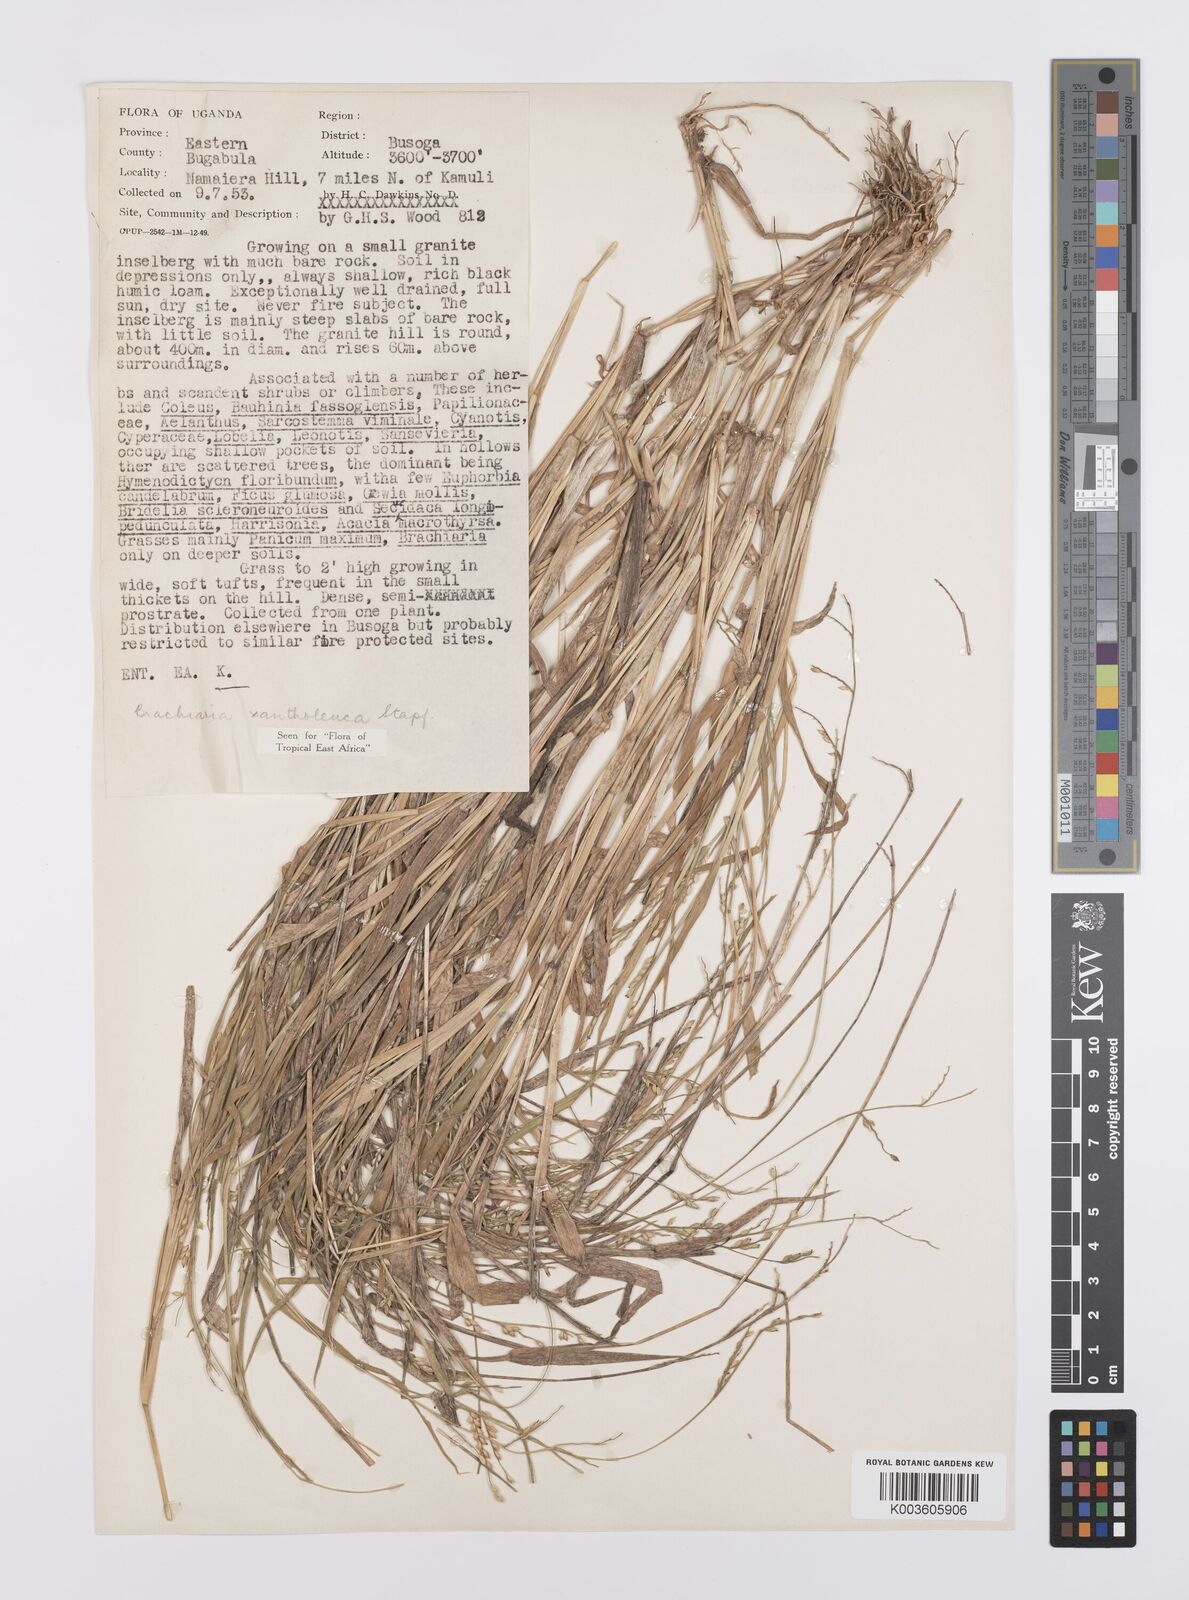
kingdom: Plantae
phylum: Tracheophyta
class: Liliopsida
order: Poales
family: Poaceae
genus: Urochloa
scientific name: Urochloa xantholeuca
